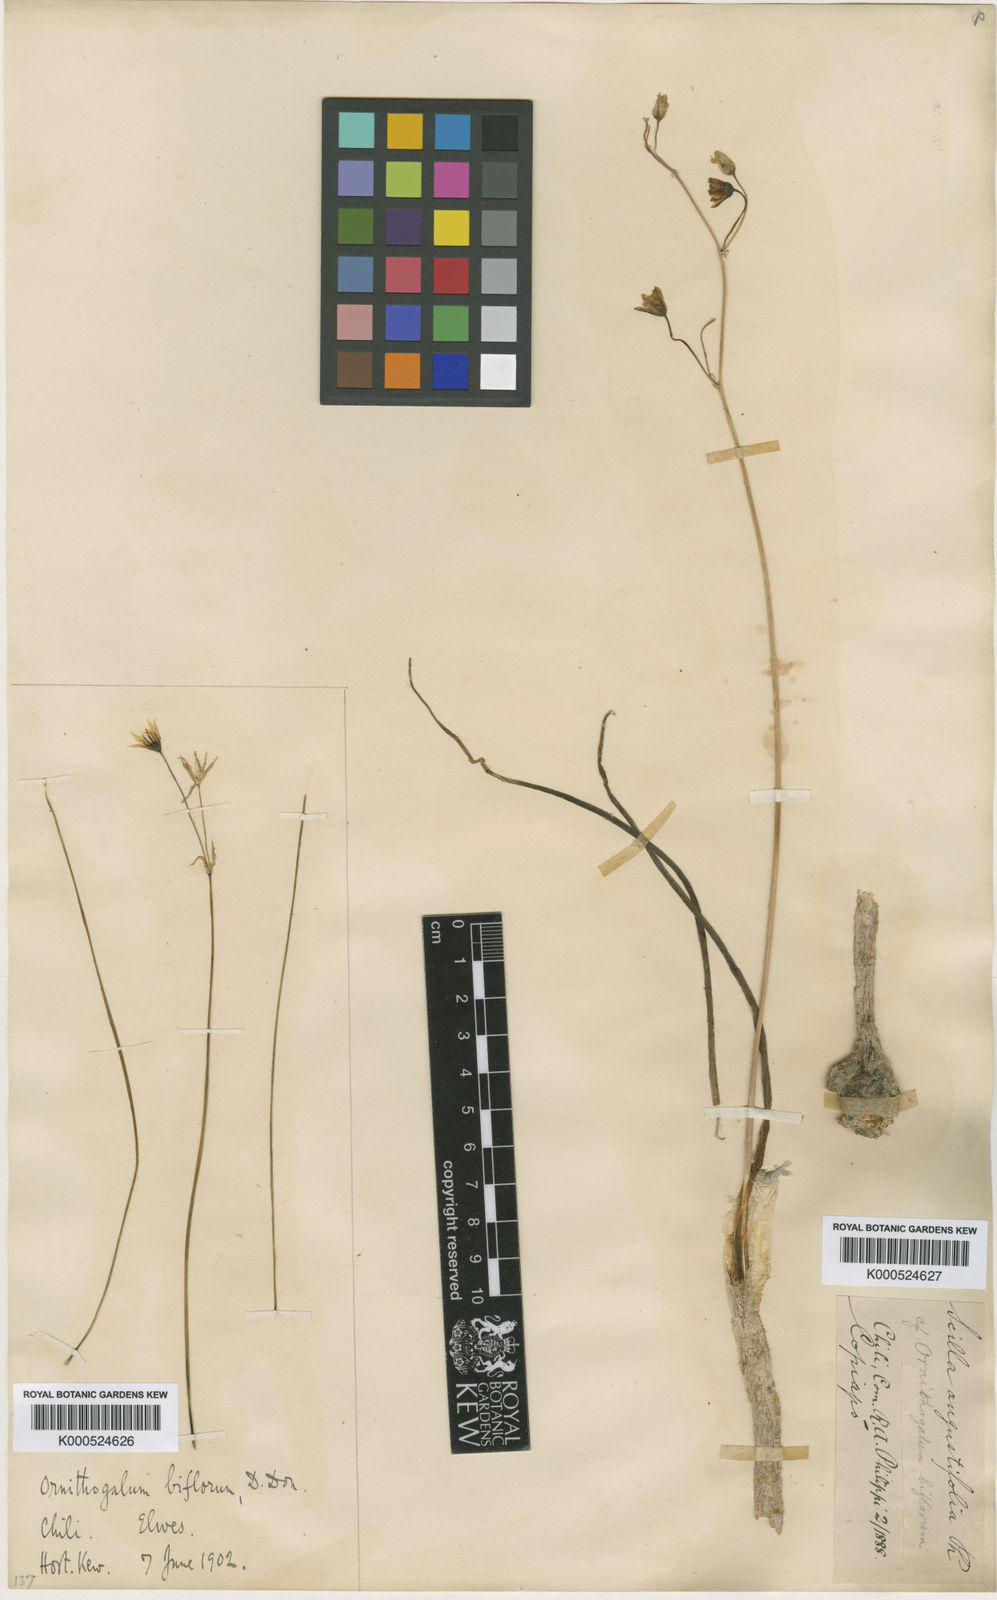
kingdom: Plantae
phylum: Tracheophyta
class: Liliopsida
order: Asparagales
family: Asparagaceae
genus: Oziroe
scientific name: Oziroe biflora
